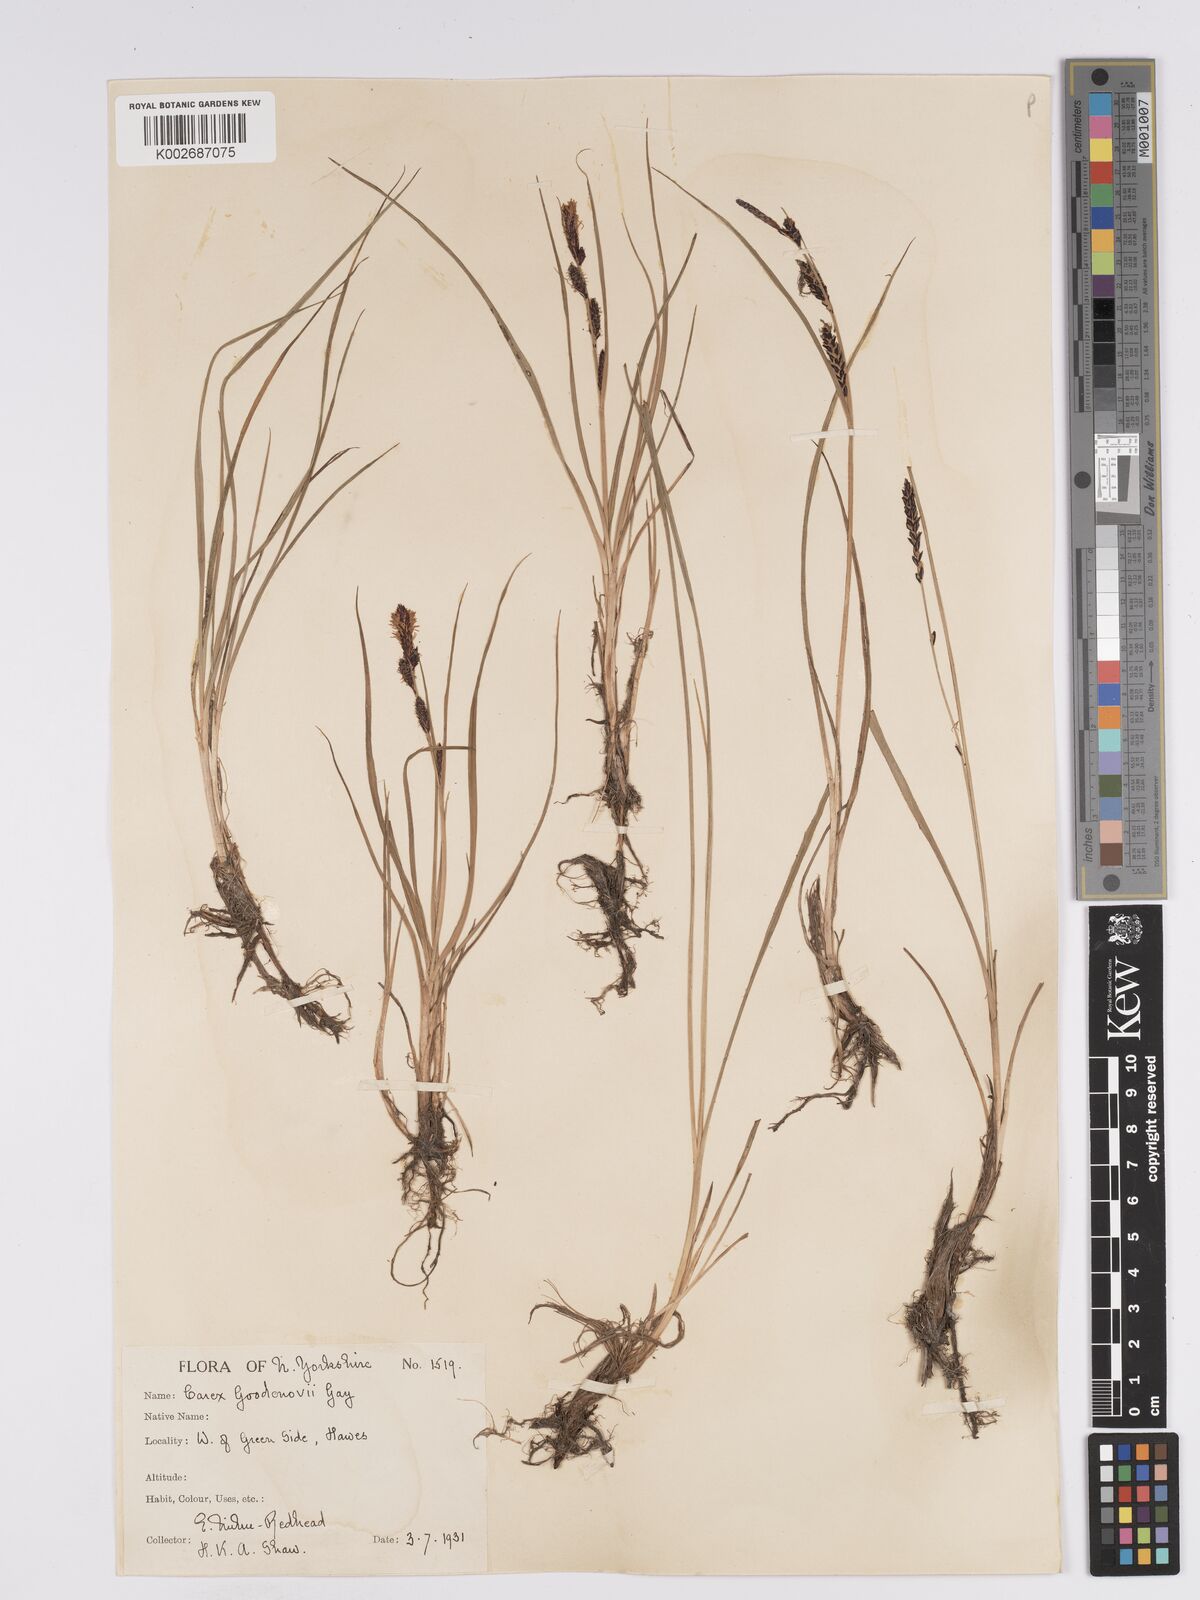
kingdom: Plantae
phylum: Tracheophyta
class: Liliopsida
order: Poales
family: Cyperaceae
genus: Carex
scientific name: Carex nigra
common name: Common sedge
